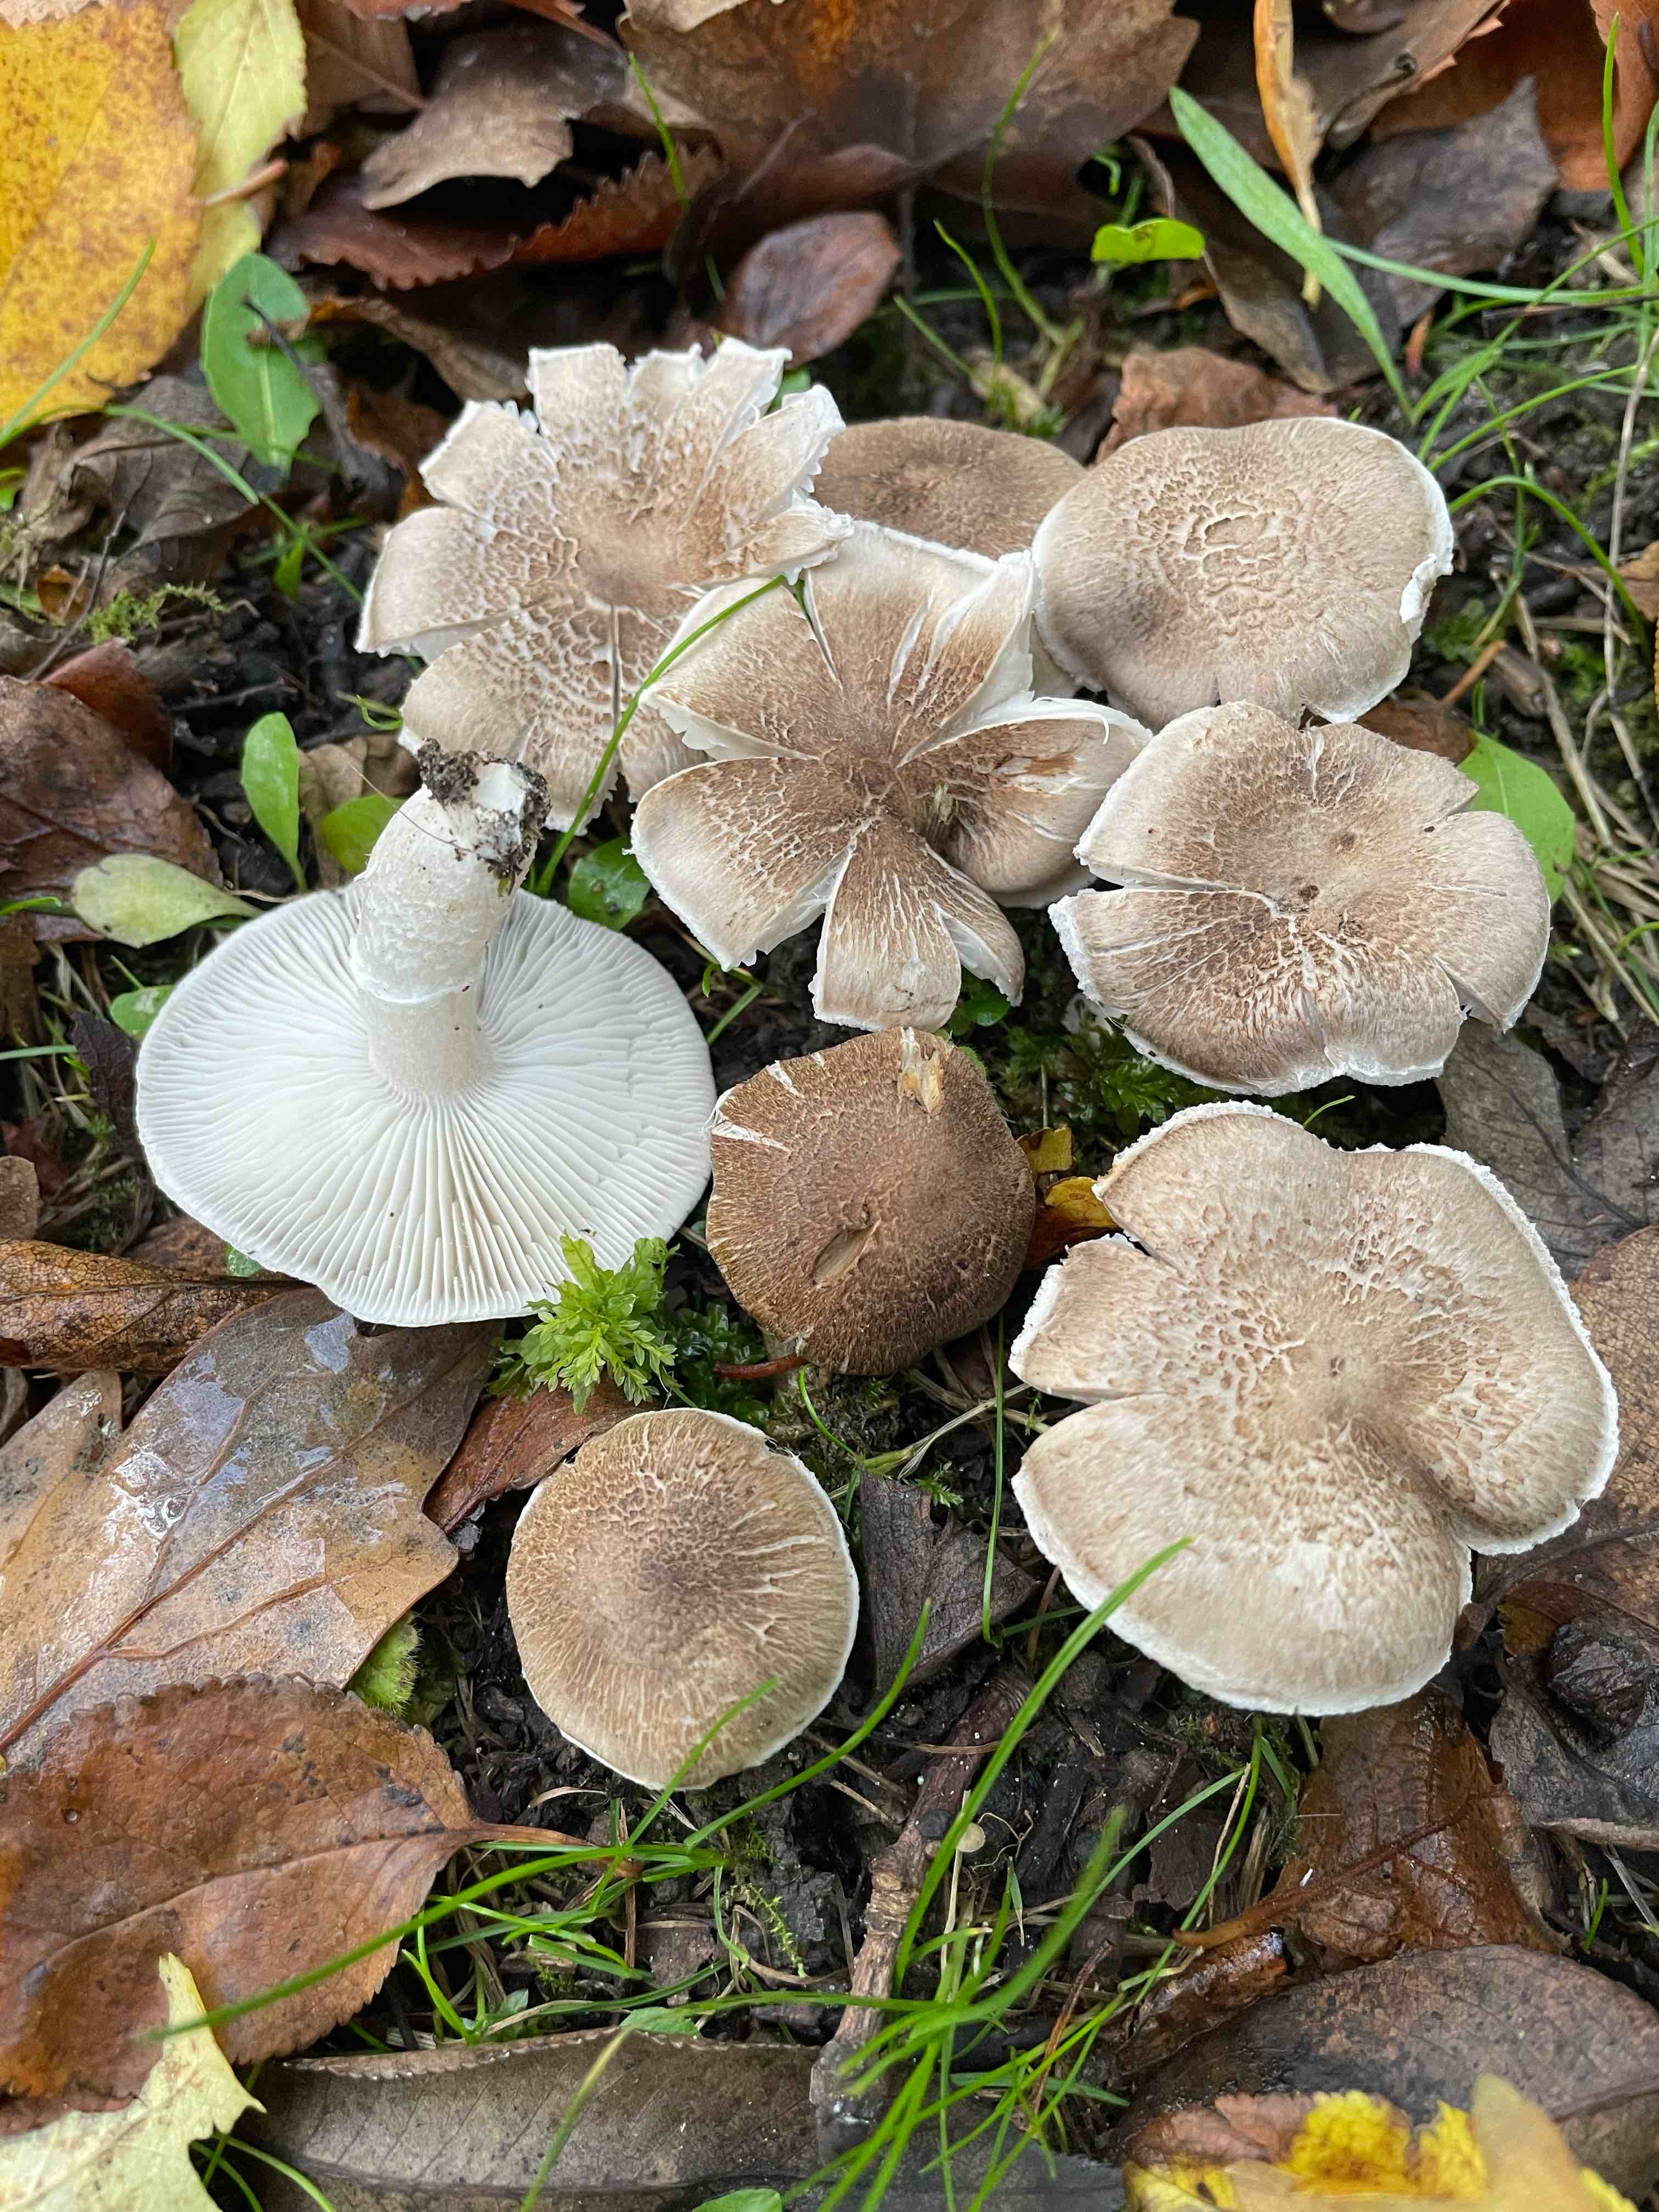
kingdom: Fungi
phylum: Basidiomycota
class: Agaricomycetes
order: Agaricales
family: Tricholomataceae
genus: Tricholoma
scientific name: Tricholoma cingulatum
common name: ring-ridderhat
